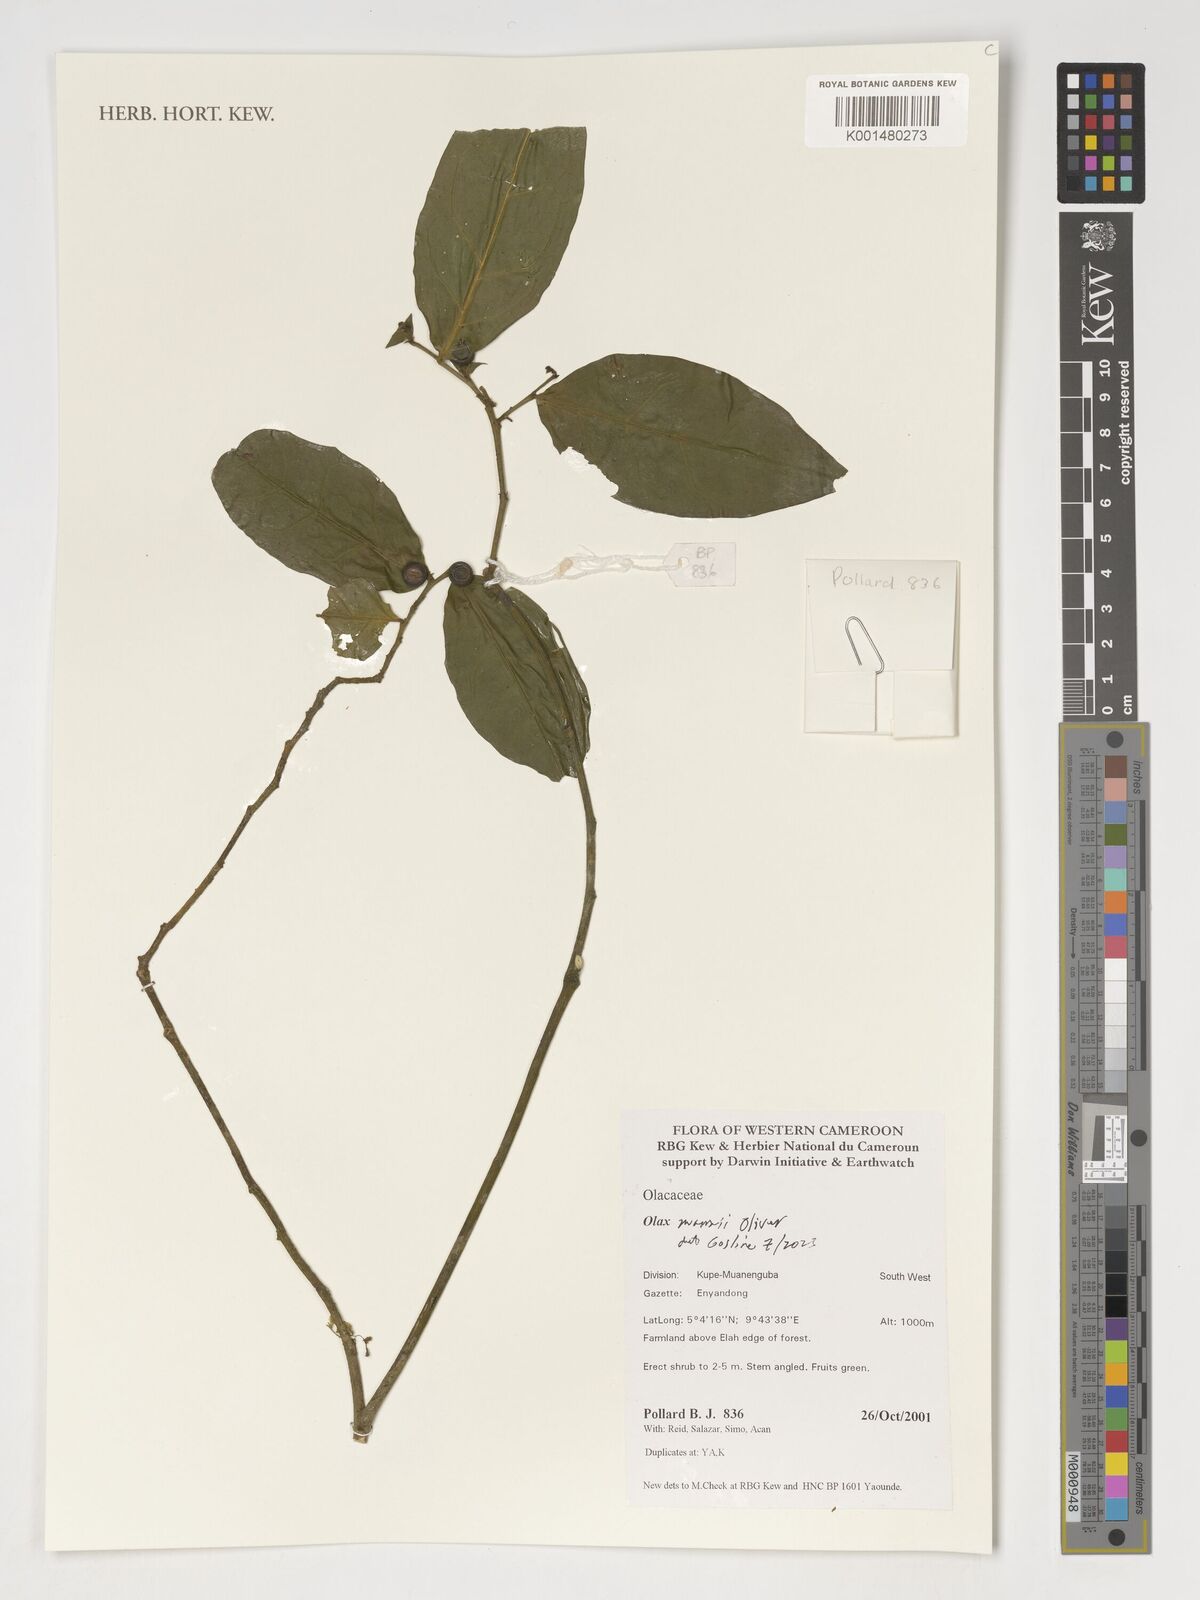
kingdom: Plantae
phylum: Tracheophyta
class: Magnoliopsida
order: Santalales
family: Olacaceae
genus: Olax
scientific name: Olax mannii
